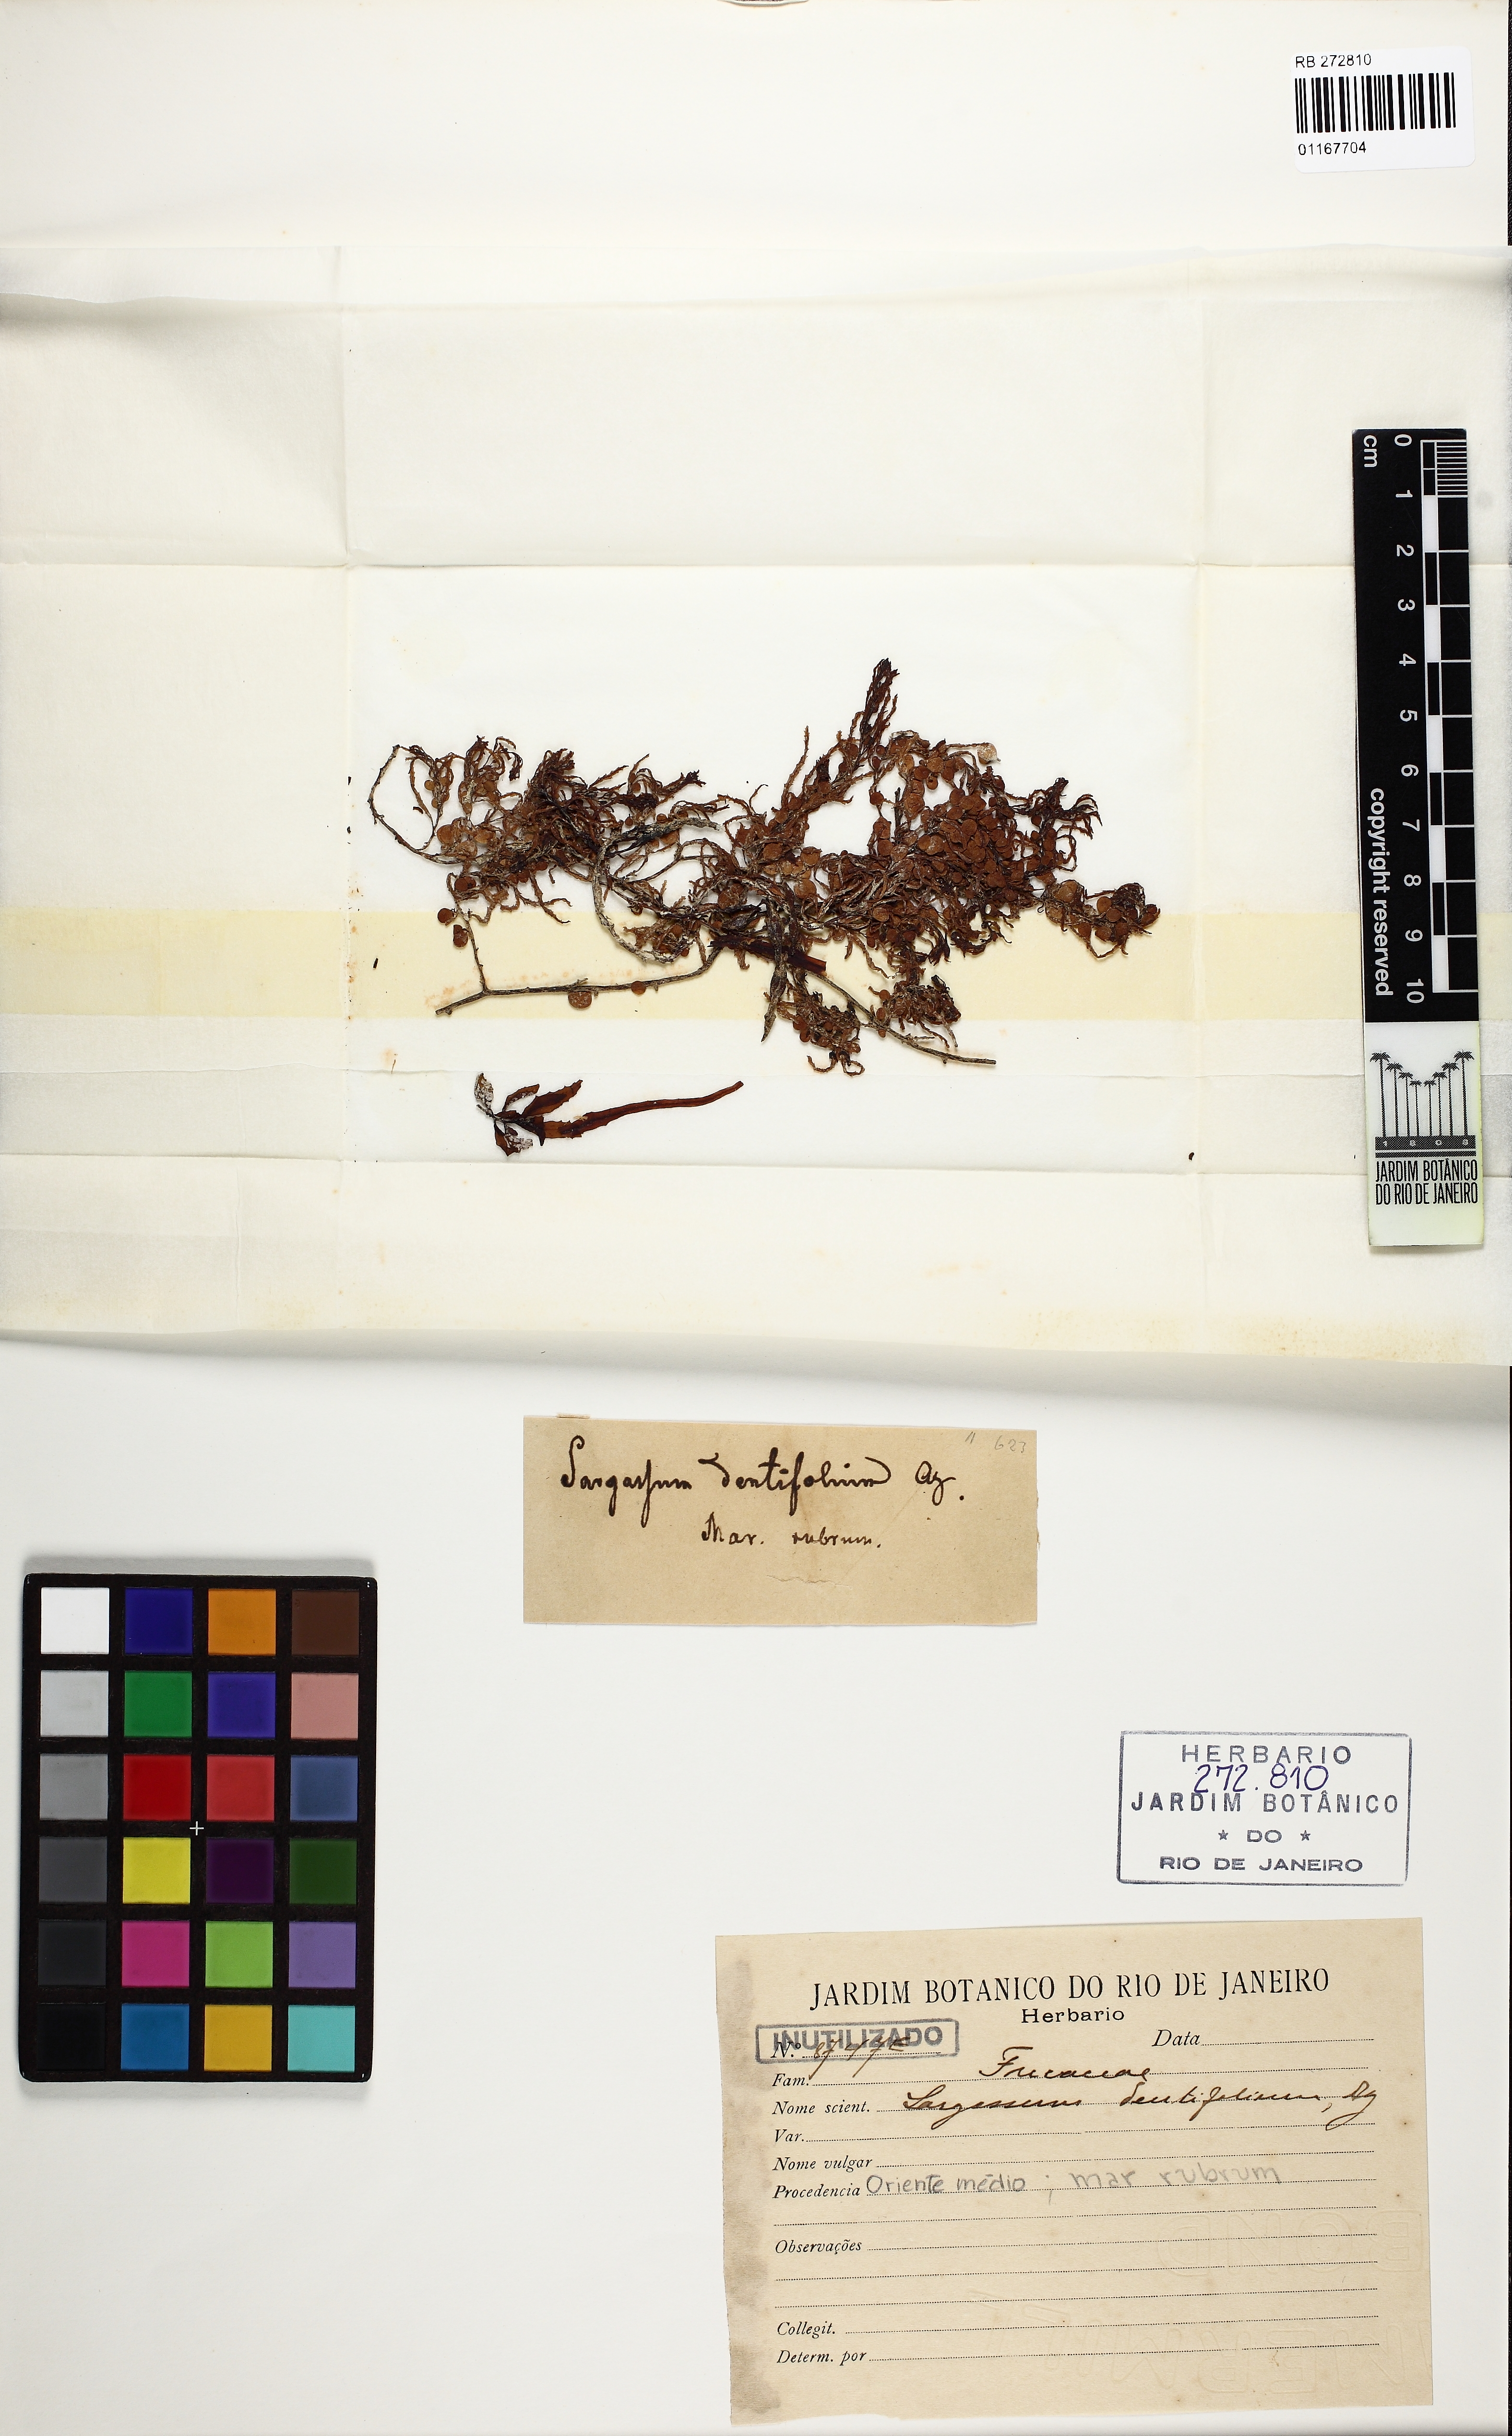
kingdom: Chromista
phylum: Ochrophyta
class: Phaeophyceae
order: Fucales
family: Sargassaceae
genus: Sargassum
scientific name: Sargassum dentifolium
